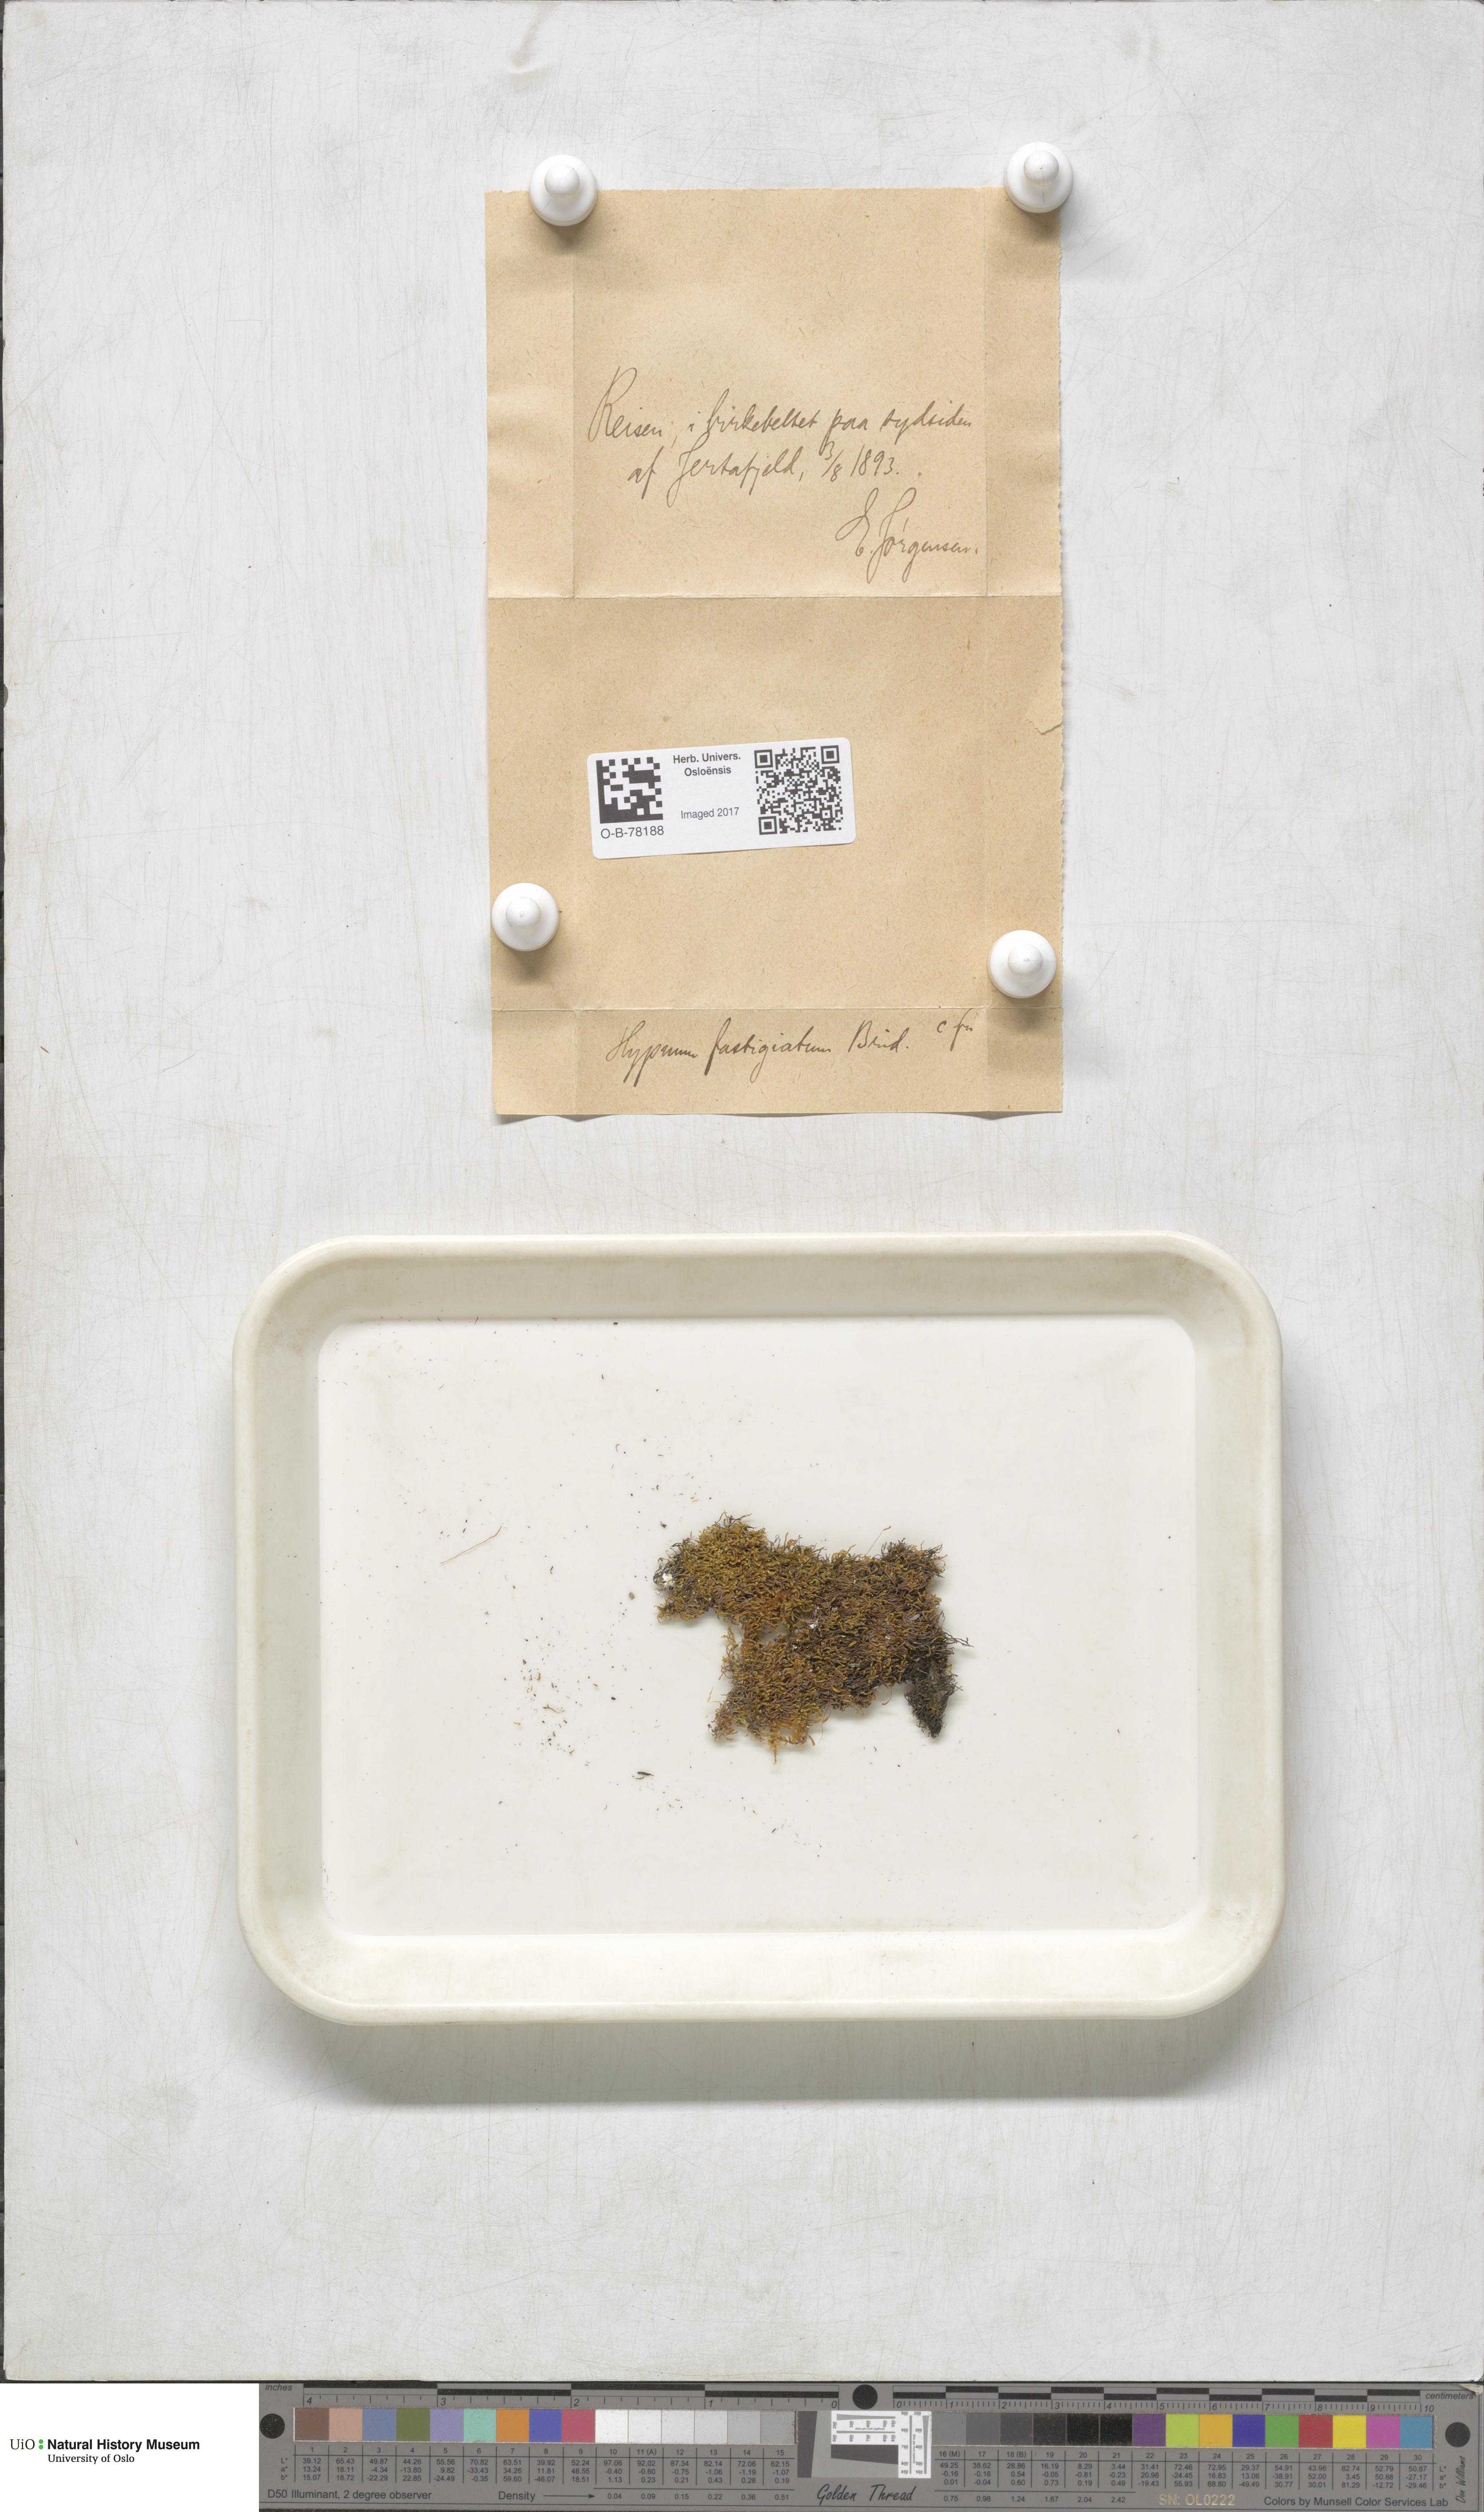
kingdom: Plantae
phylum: Bryophyta
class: Bryopsida
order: Hypnales
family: Amblystegiaceae
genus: Drepanium
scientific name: Drepanium fastigiatum
